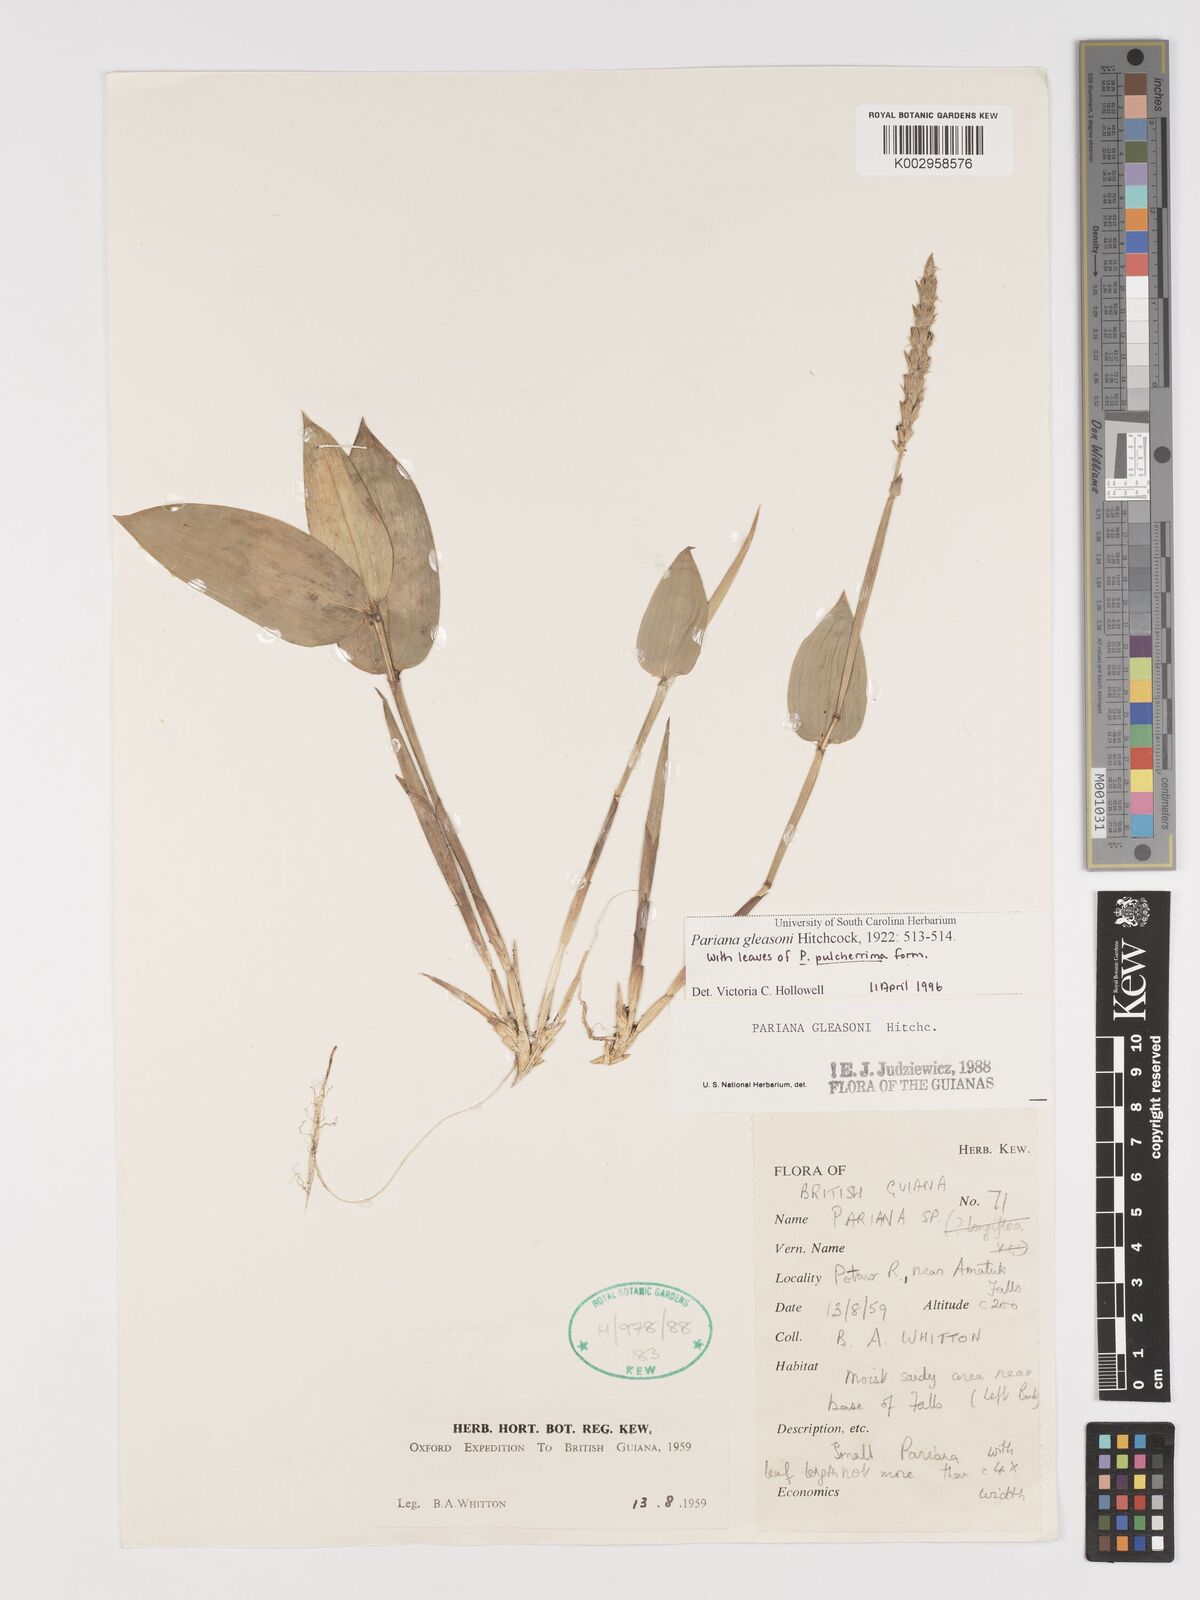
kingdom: Plantae
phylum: Tracheophyta
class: Liliopsida
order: Poales
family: Poaceae
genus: Pariana
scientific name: Pariana radiciflora
